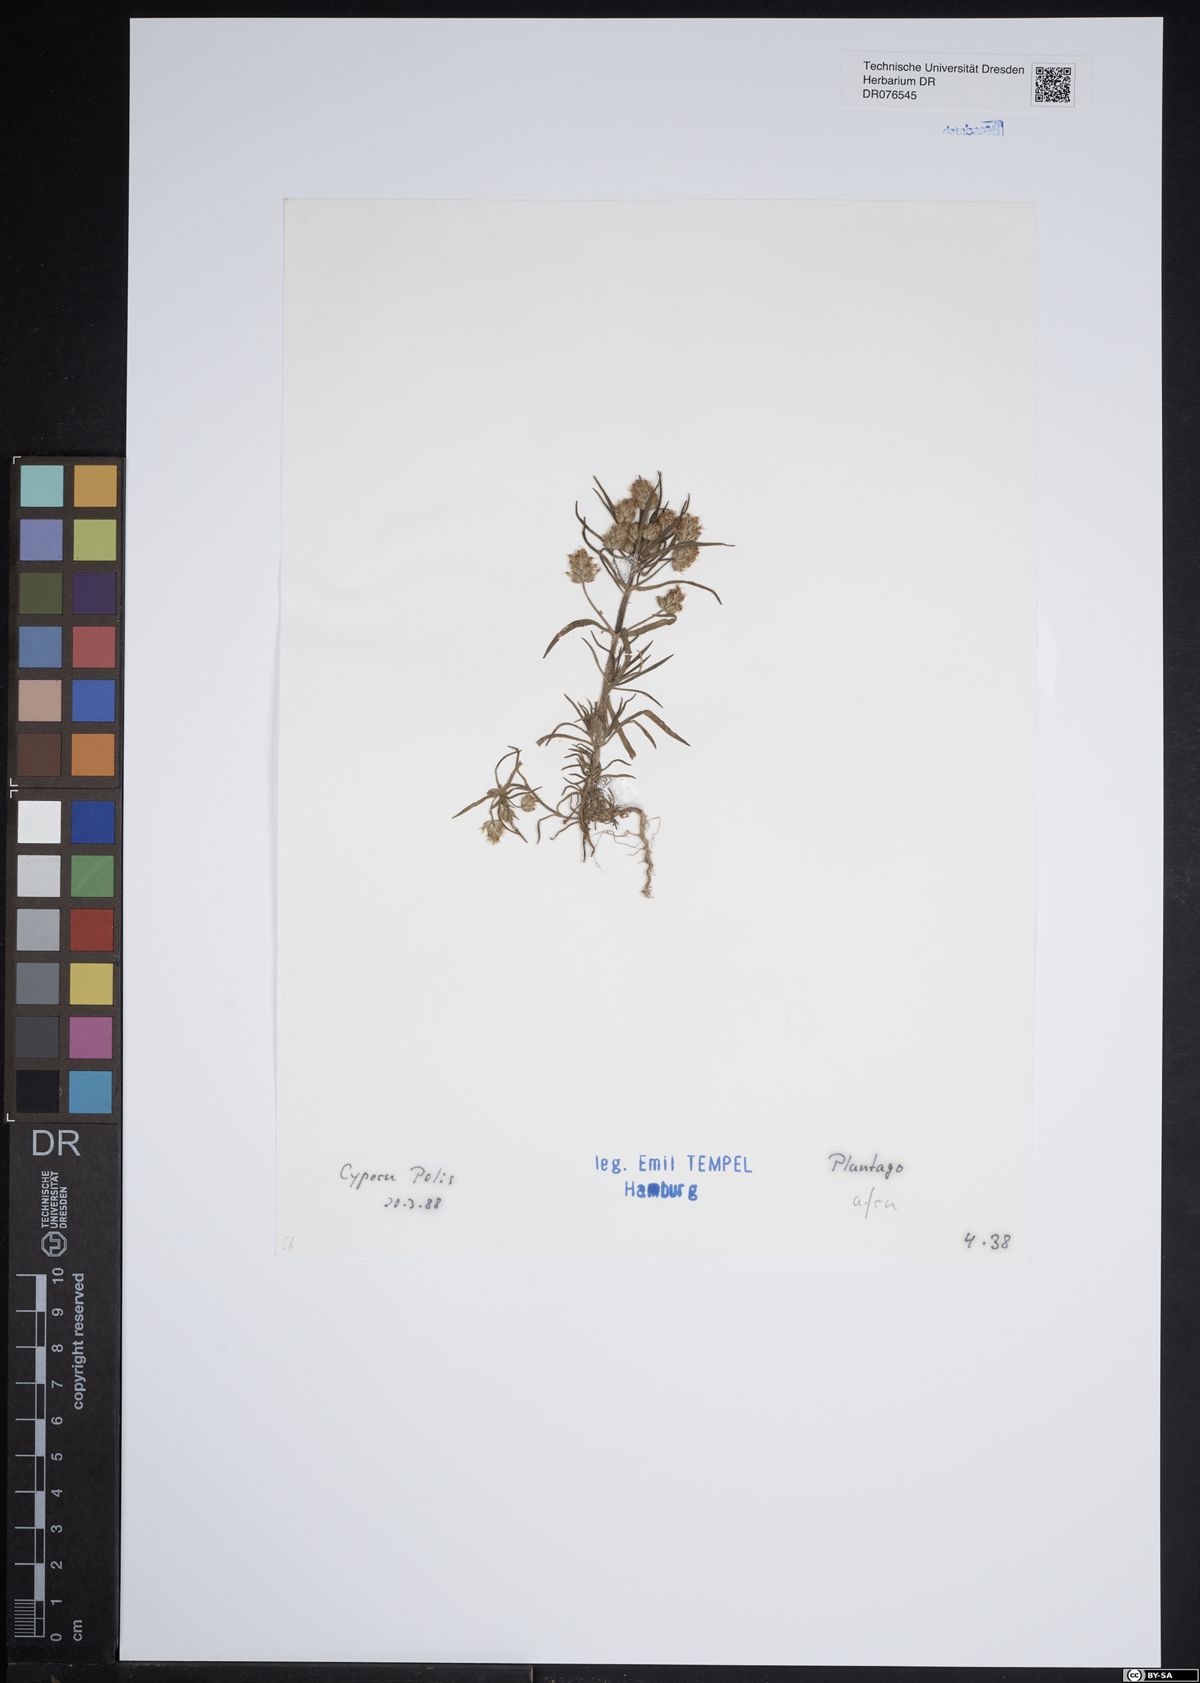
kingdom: Plantae
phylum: Tracheophyta
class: Magnoliopsida
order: Lamiales
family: Plantaginaceae
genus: Plantago
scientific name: Plantago afra
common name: Glandular plantain
